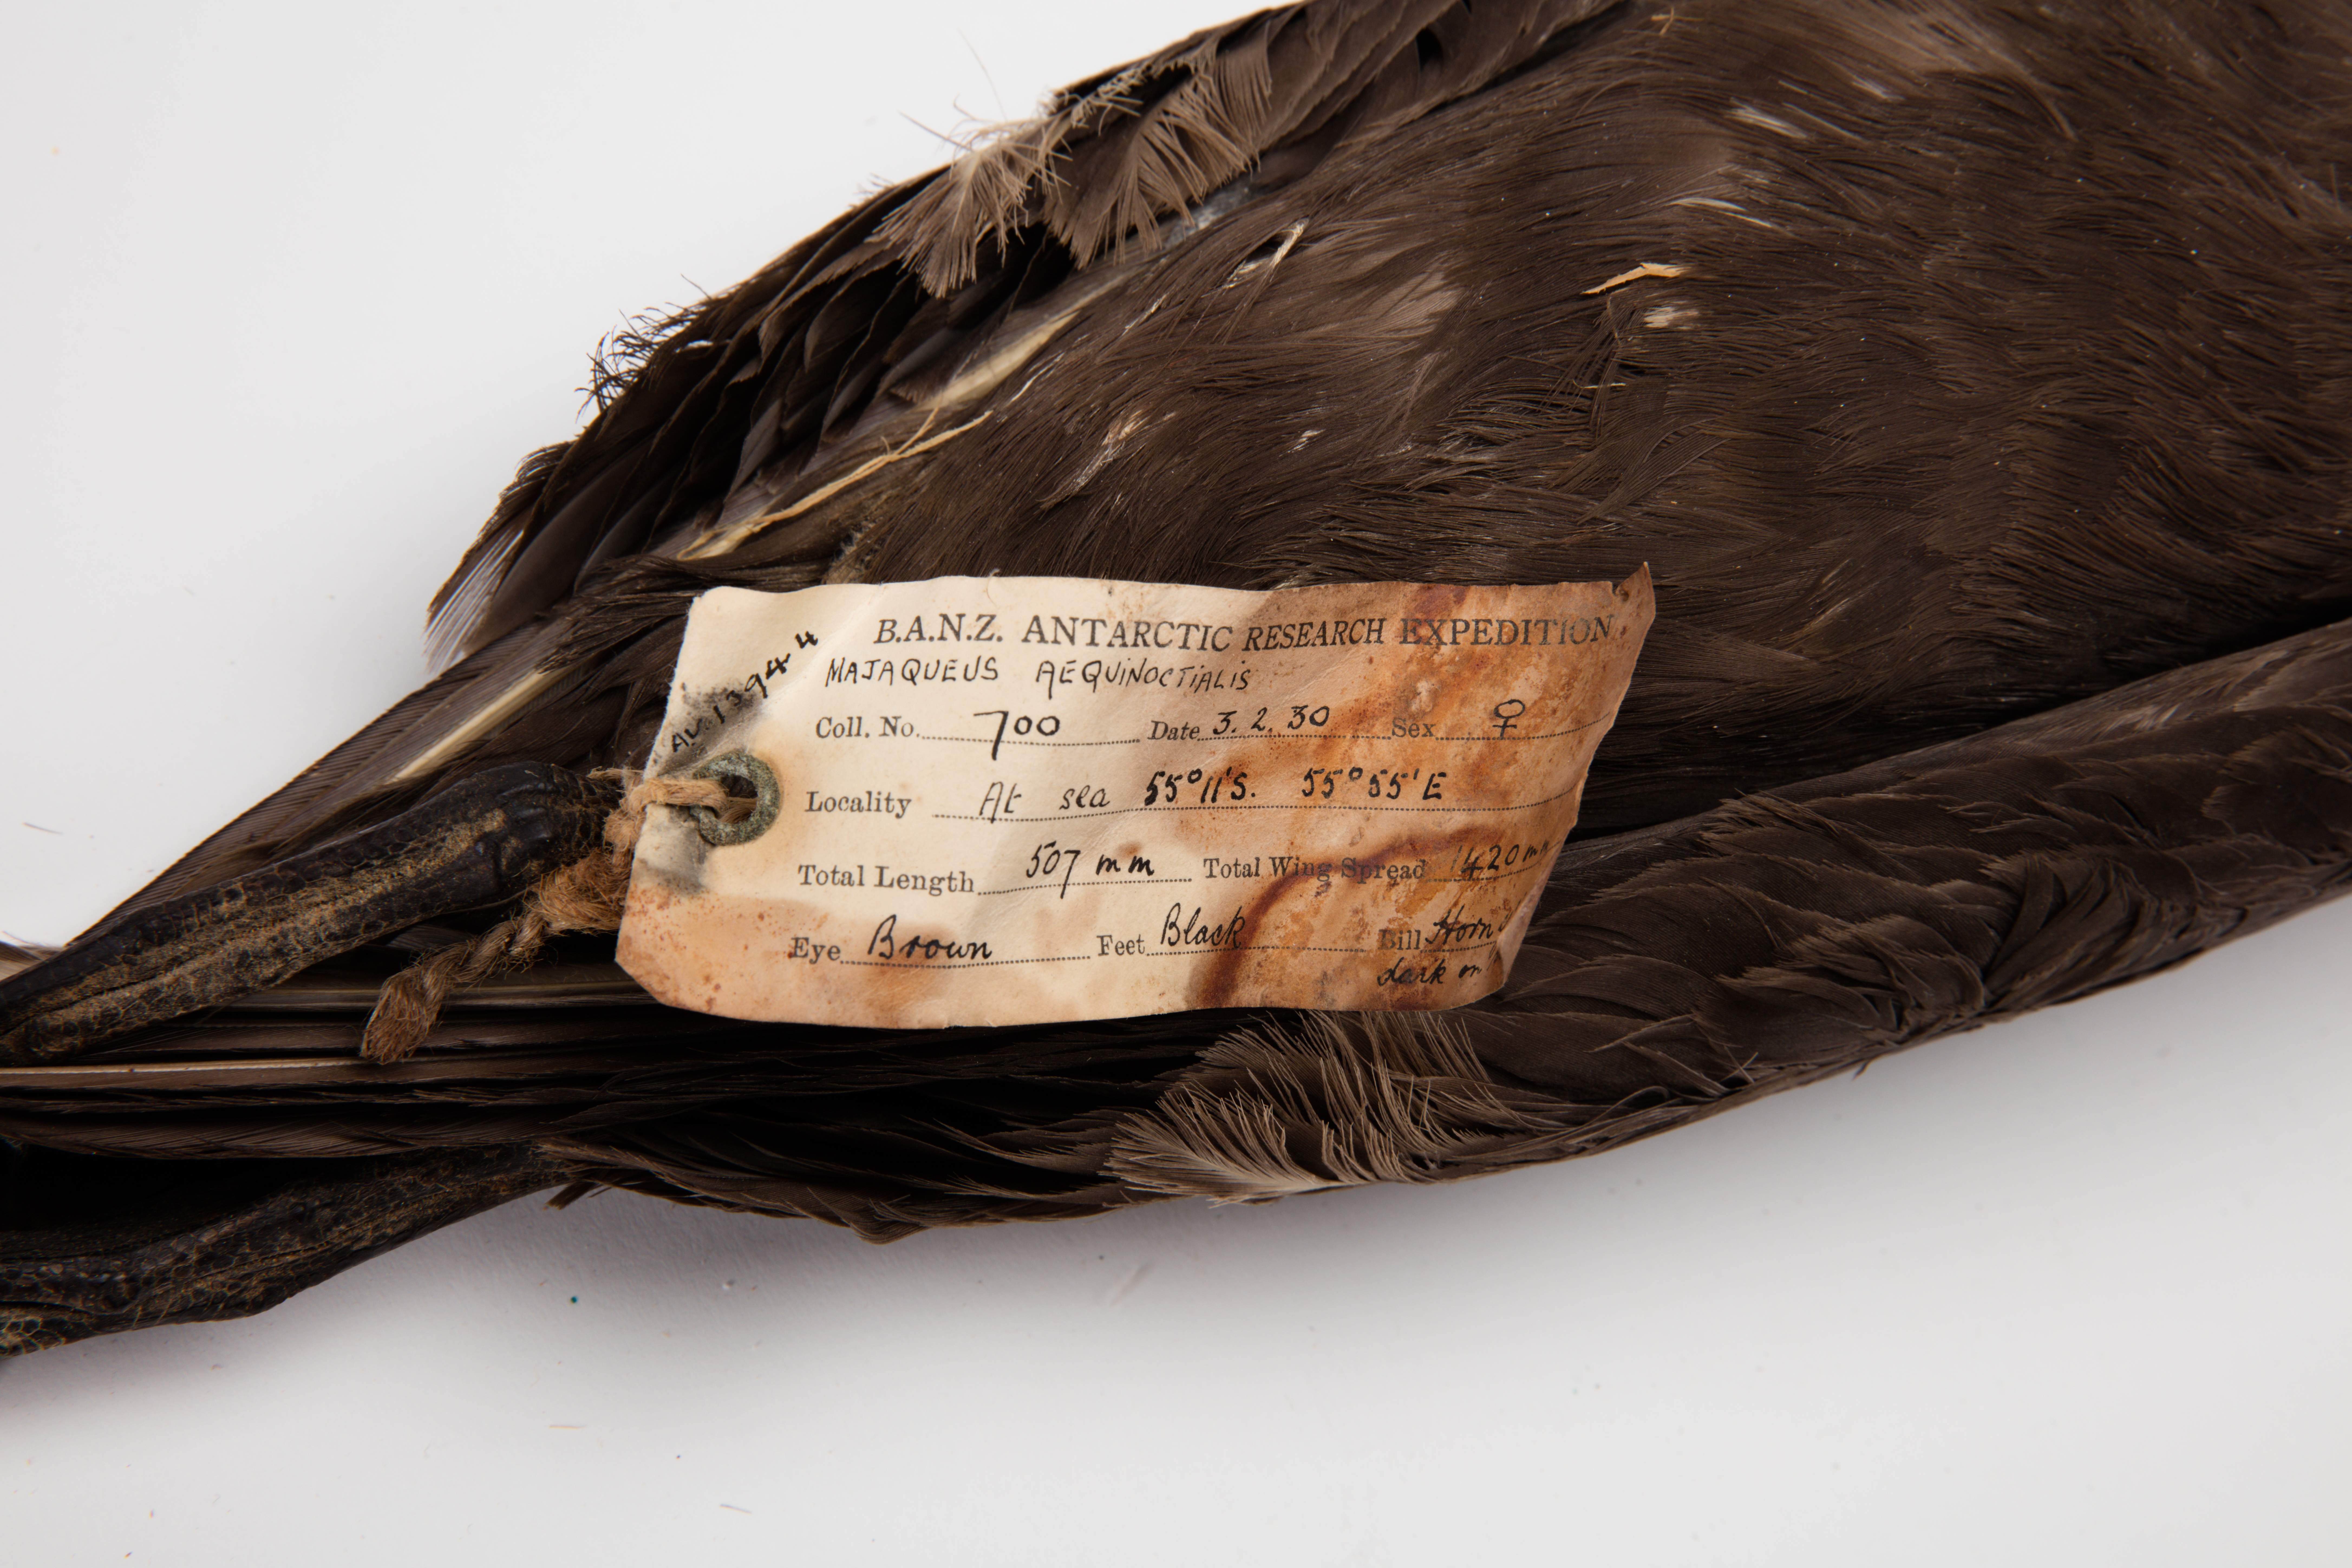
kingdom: Animalia
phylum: Chordata
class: Aves
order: Procellariiformes
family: Procellariidae
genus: Procellaria
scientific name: Procellaria aequinoctialis
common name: White-chinned petrel
